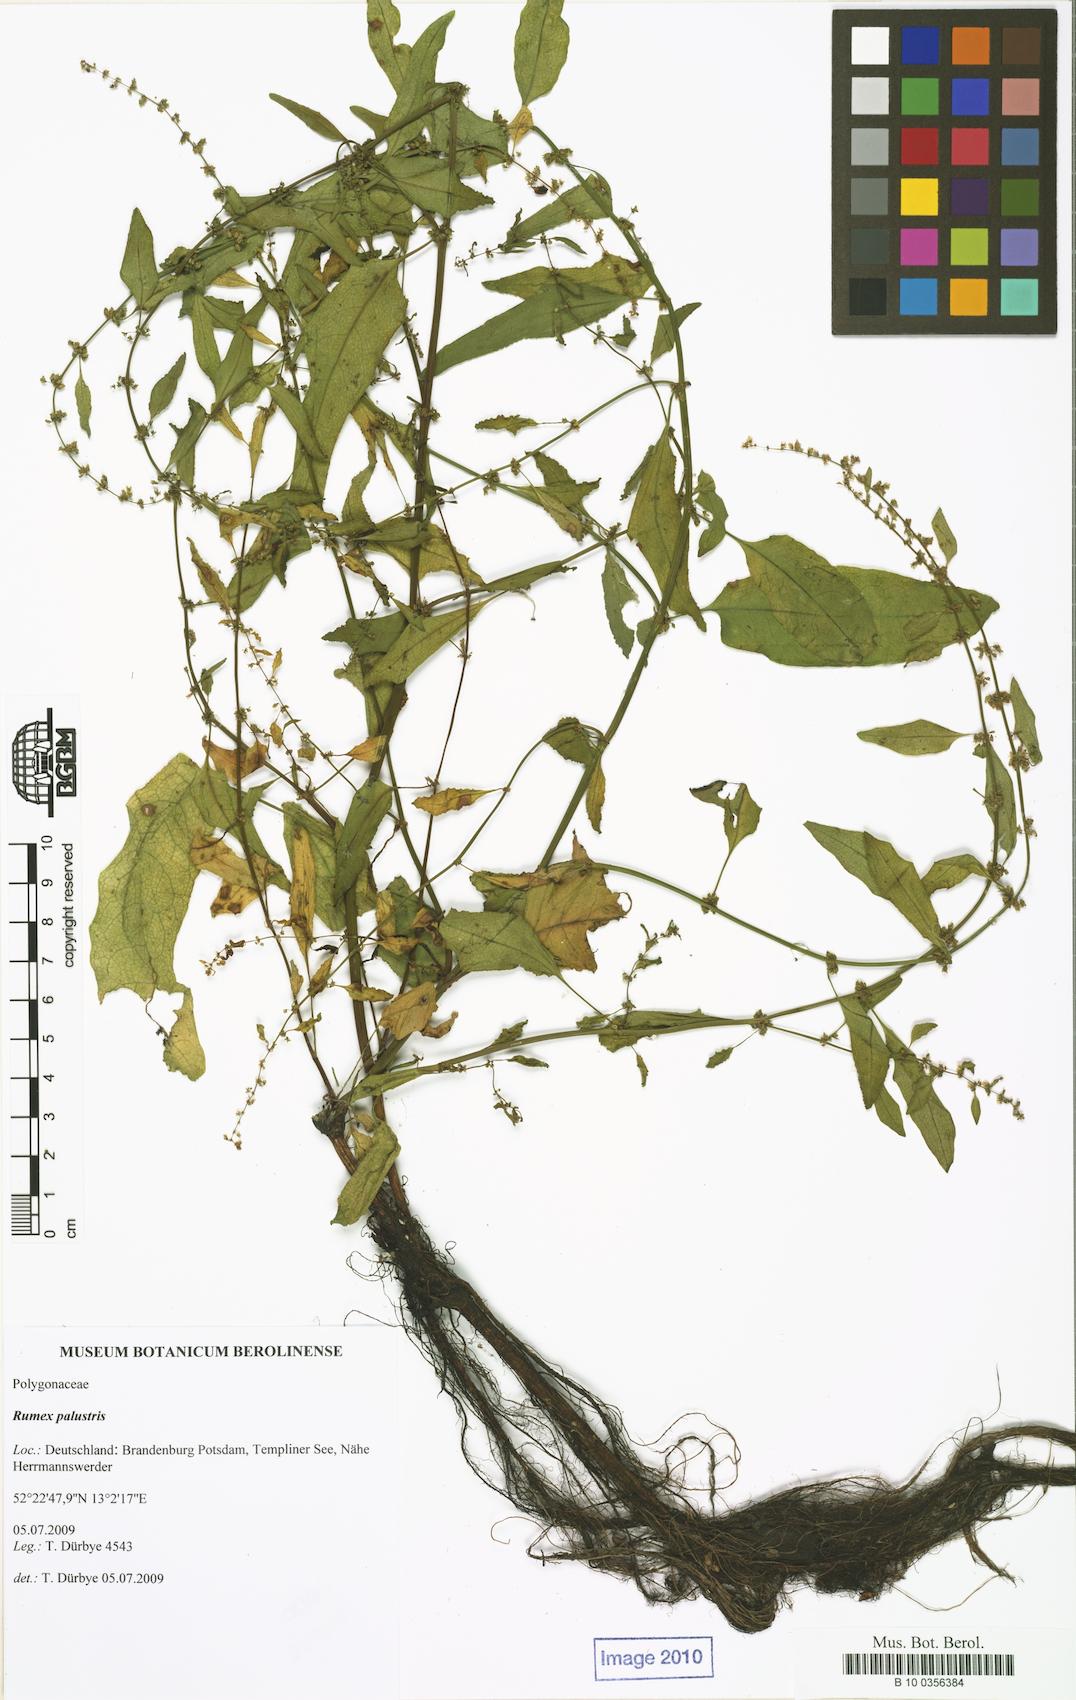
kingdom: Plantae
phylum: Tracheophyta
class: Magnoliopsida
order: Caryophyllales
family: Polygonaceae
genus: Rumex
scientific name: Rumex palustris
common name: Marsh dock
